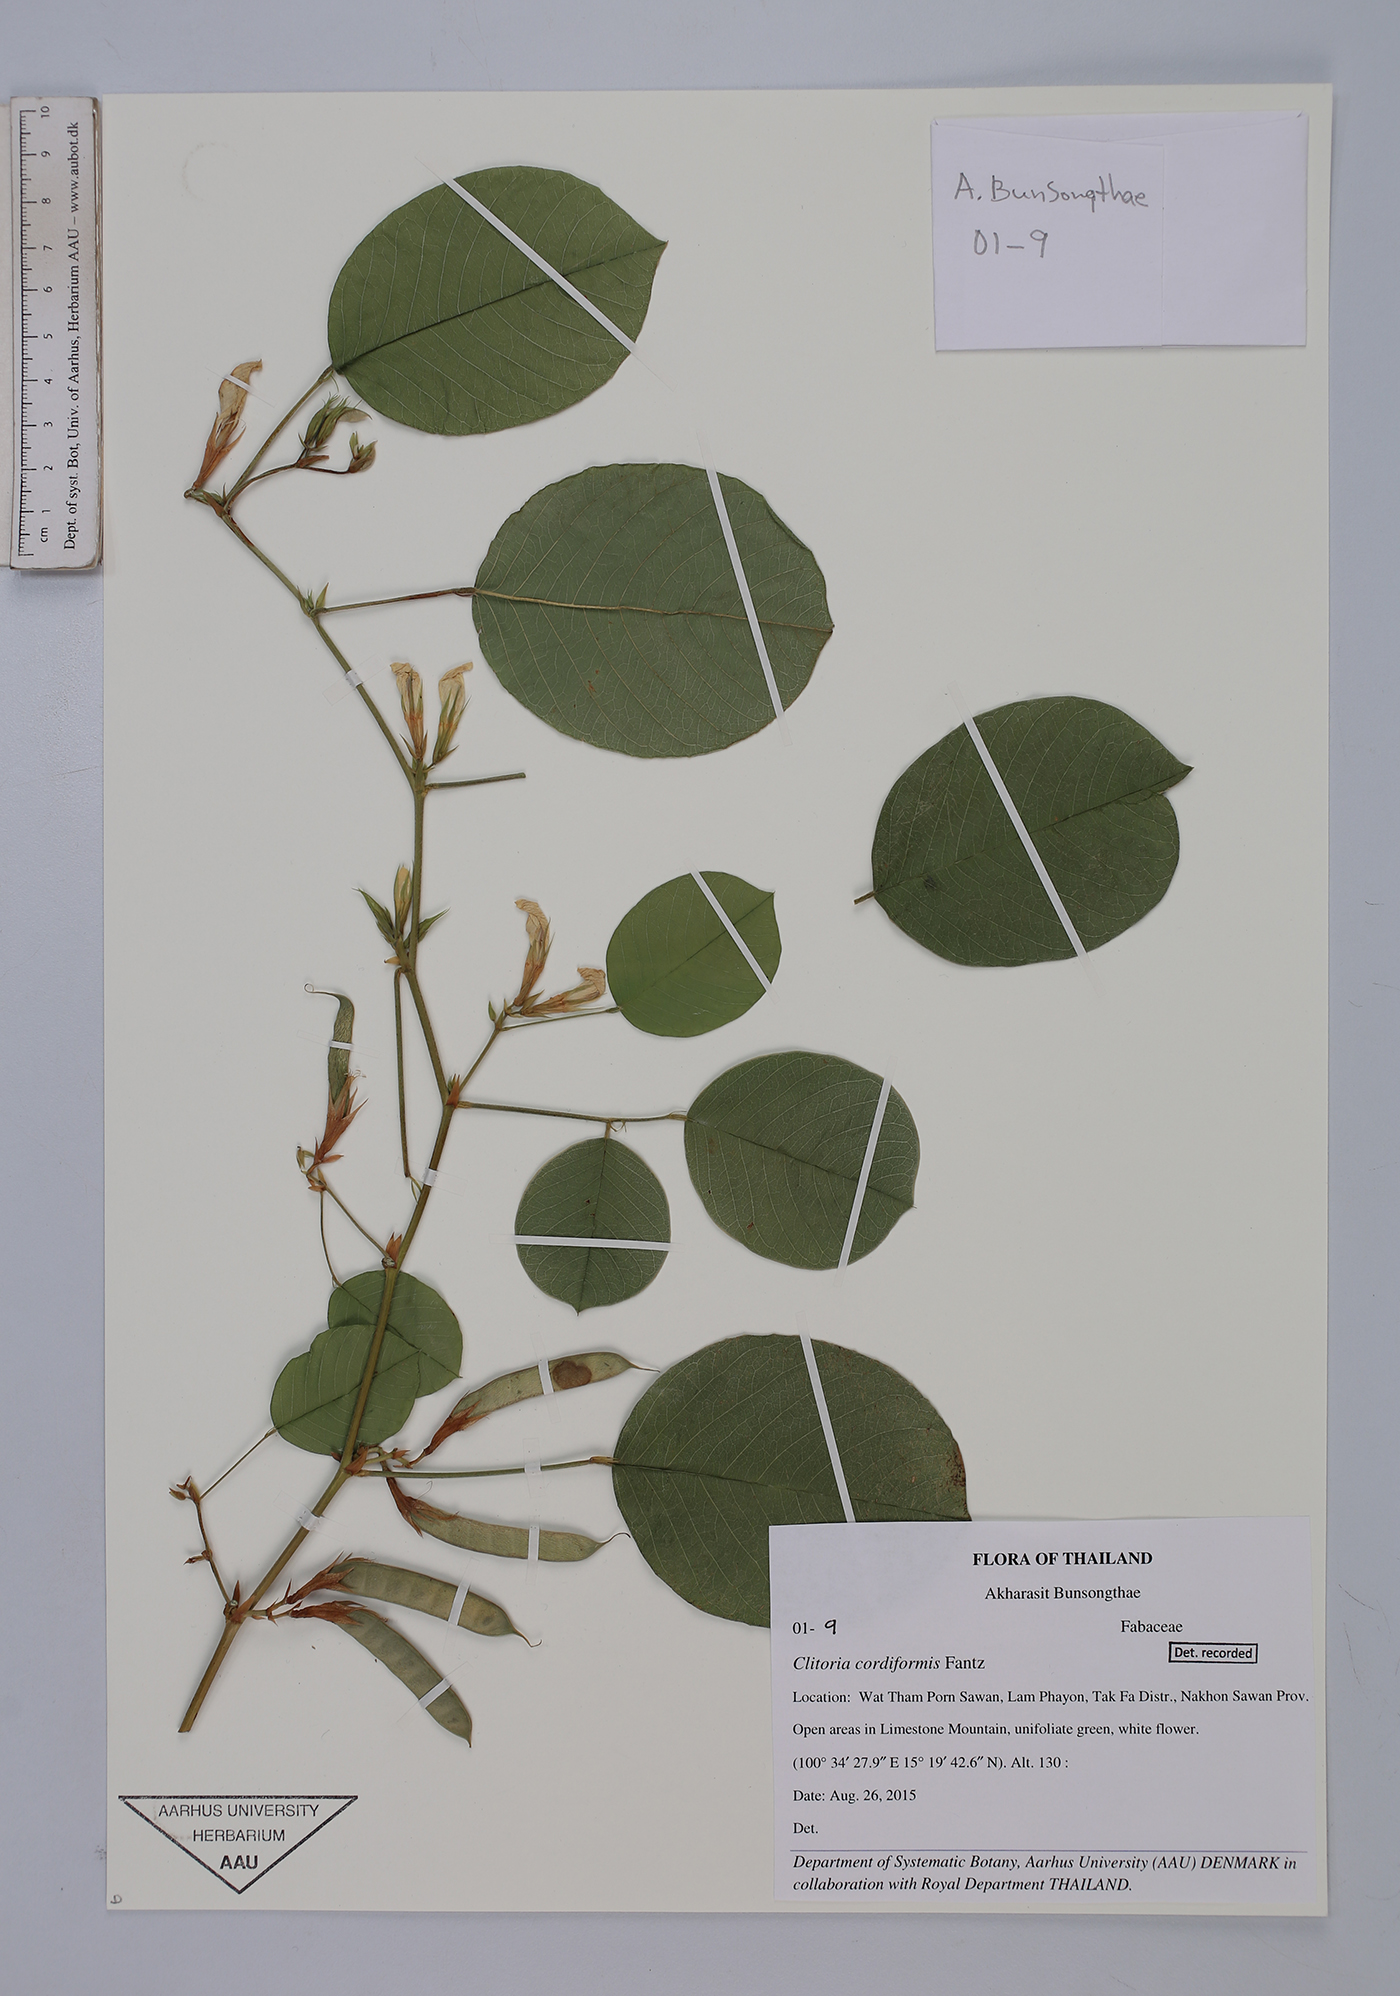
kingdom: Plantae
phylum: Tracheophyta
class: Magnoliopsida
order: Fabales
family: Fabaceae
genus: Clitoria
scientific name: Clitoria cordiformis
